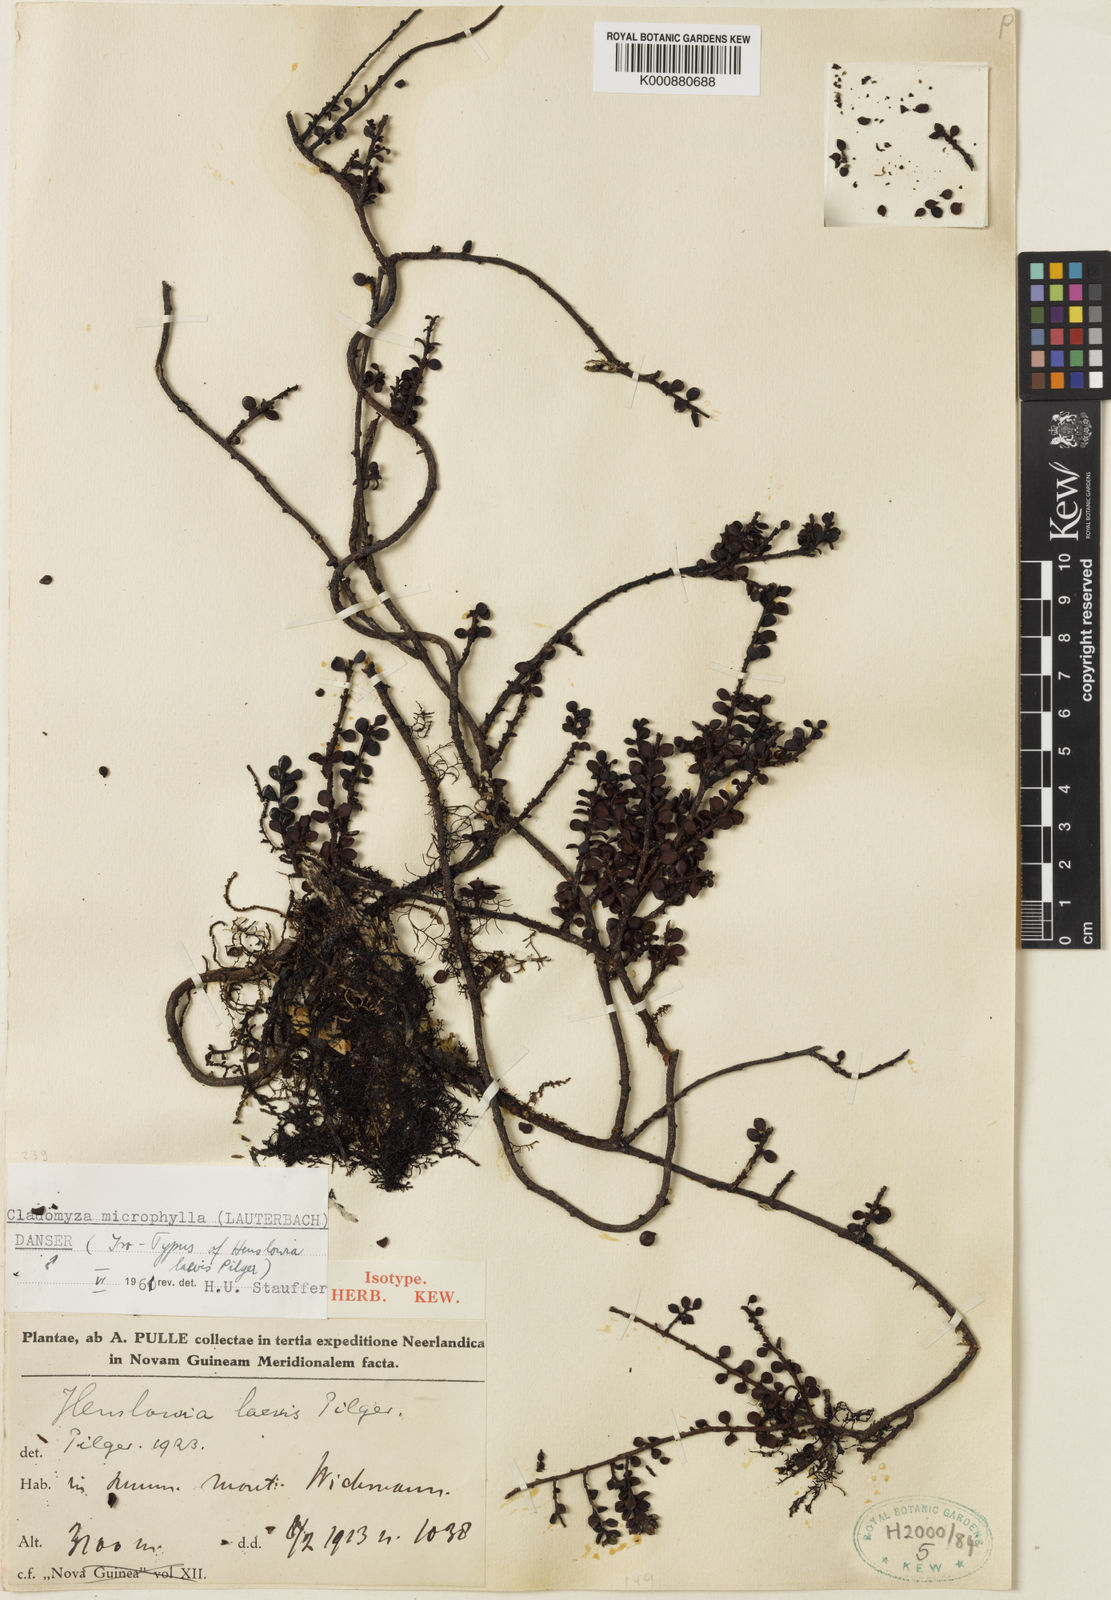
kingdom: Plantae
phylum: Tracheophyta
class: Magnoliopsida
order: Santalales
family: Amphorogynaceae
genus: Cladomyza
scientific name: Cladomyza microphylla
